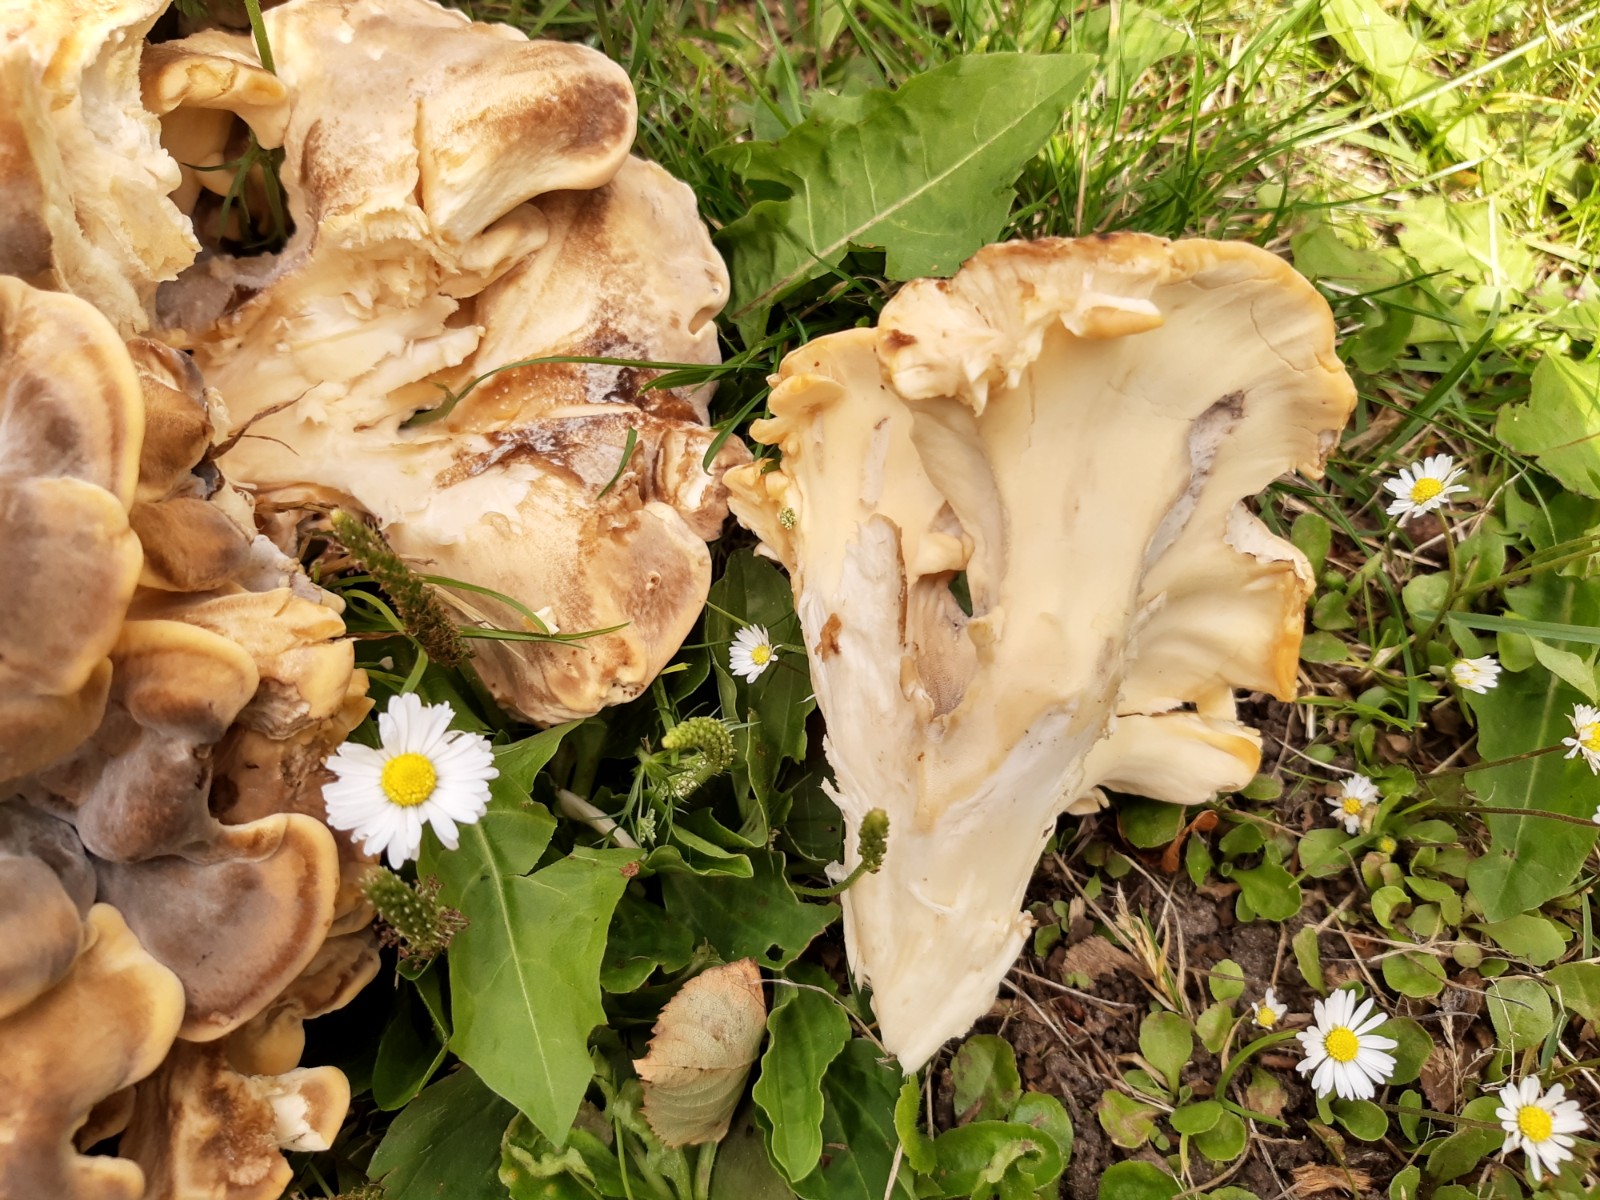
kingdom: Fungi
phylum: Basidiomycota
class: Agaricomycetes
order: Polyporales
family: Meripilaceae
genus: Meripilus
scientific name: Meripilus giganteus
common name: kæmpeporesvamp
